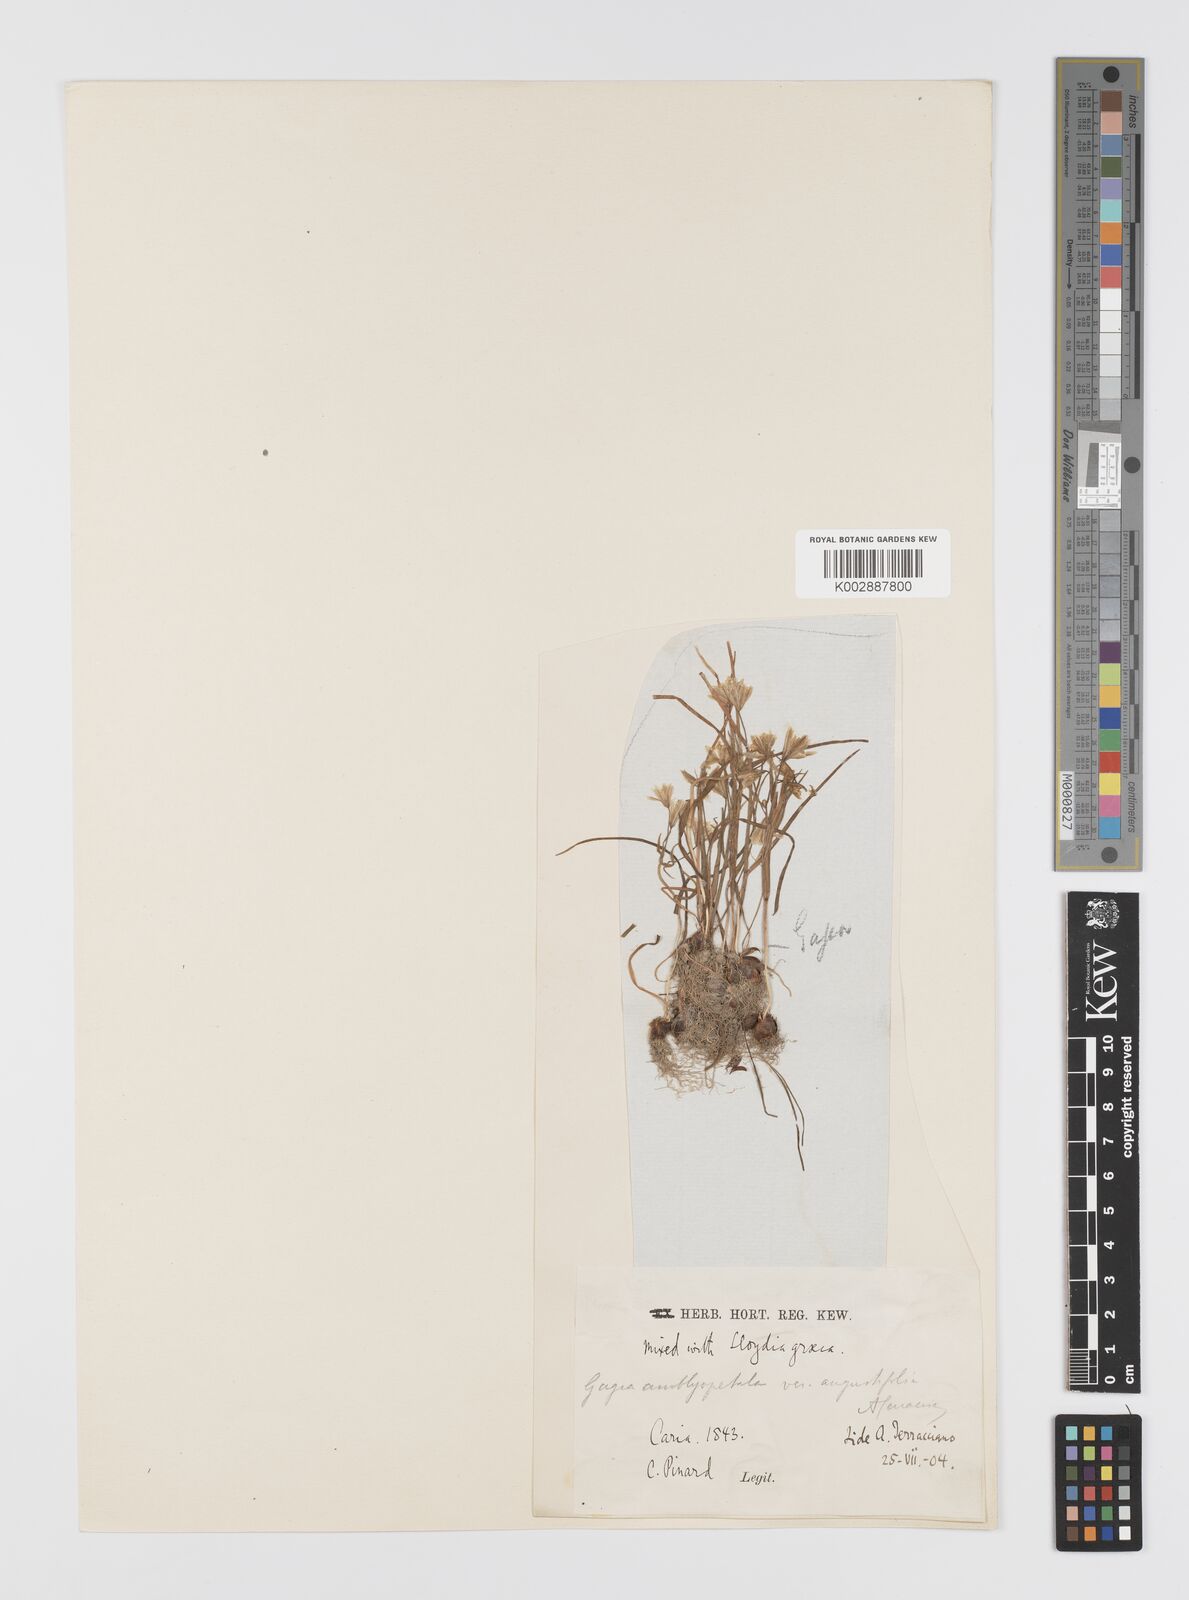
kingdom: Plantae
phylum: Tracheophyta
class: Liliopsida
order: Liliales
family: Liliaceae
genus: Gagea
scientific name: Gagea longifolia
